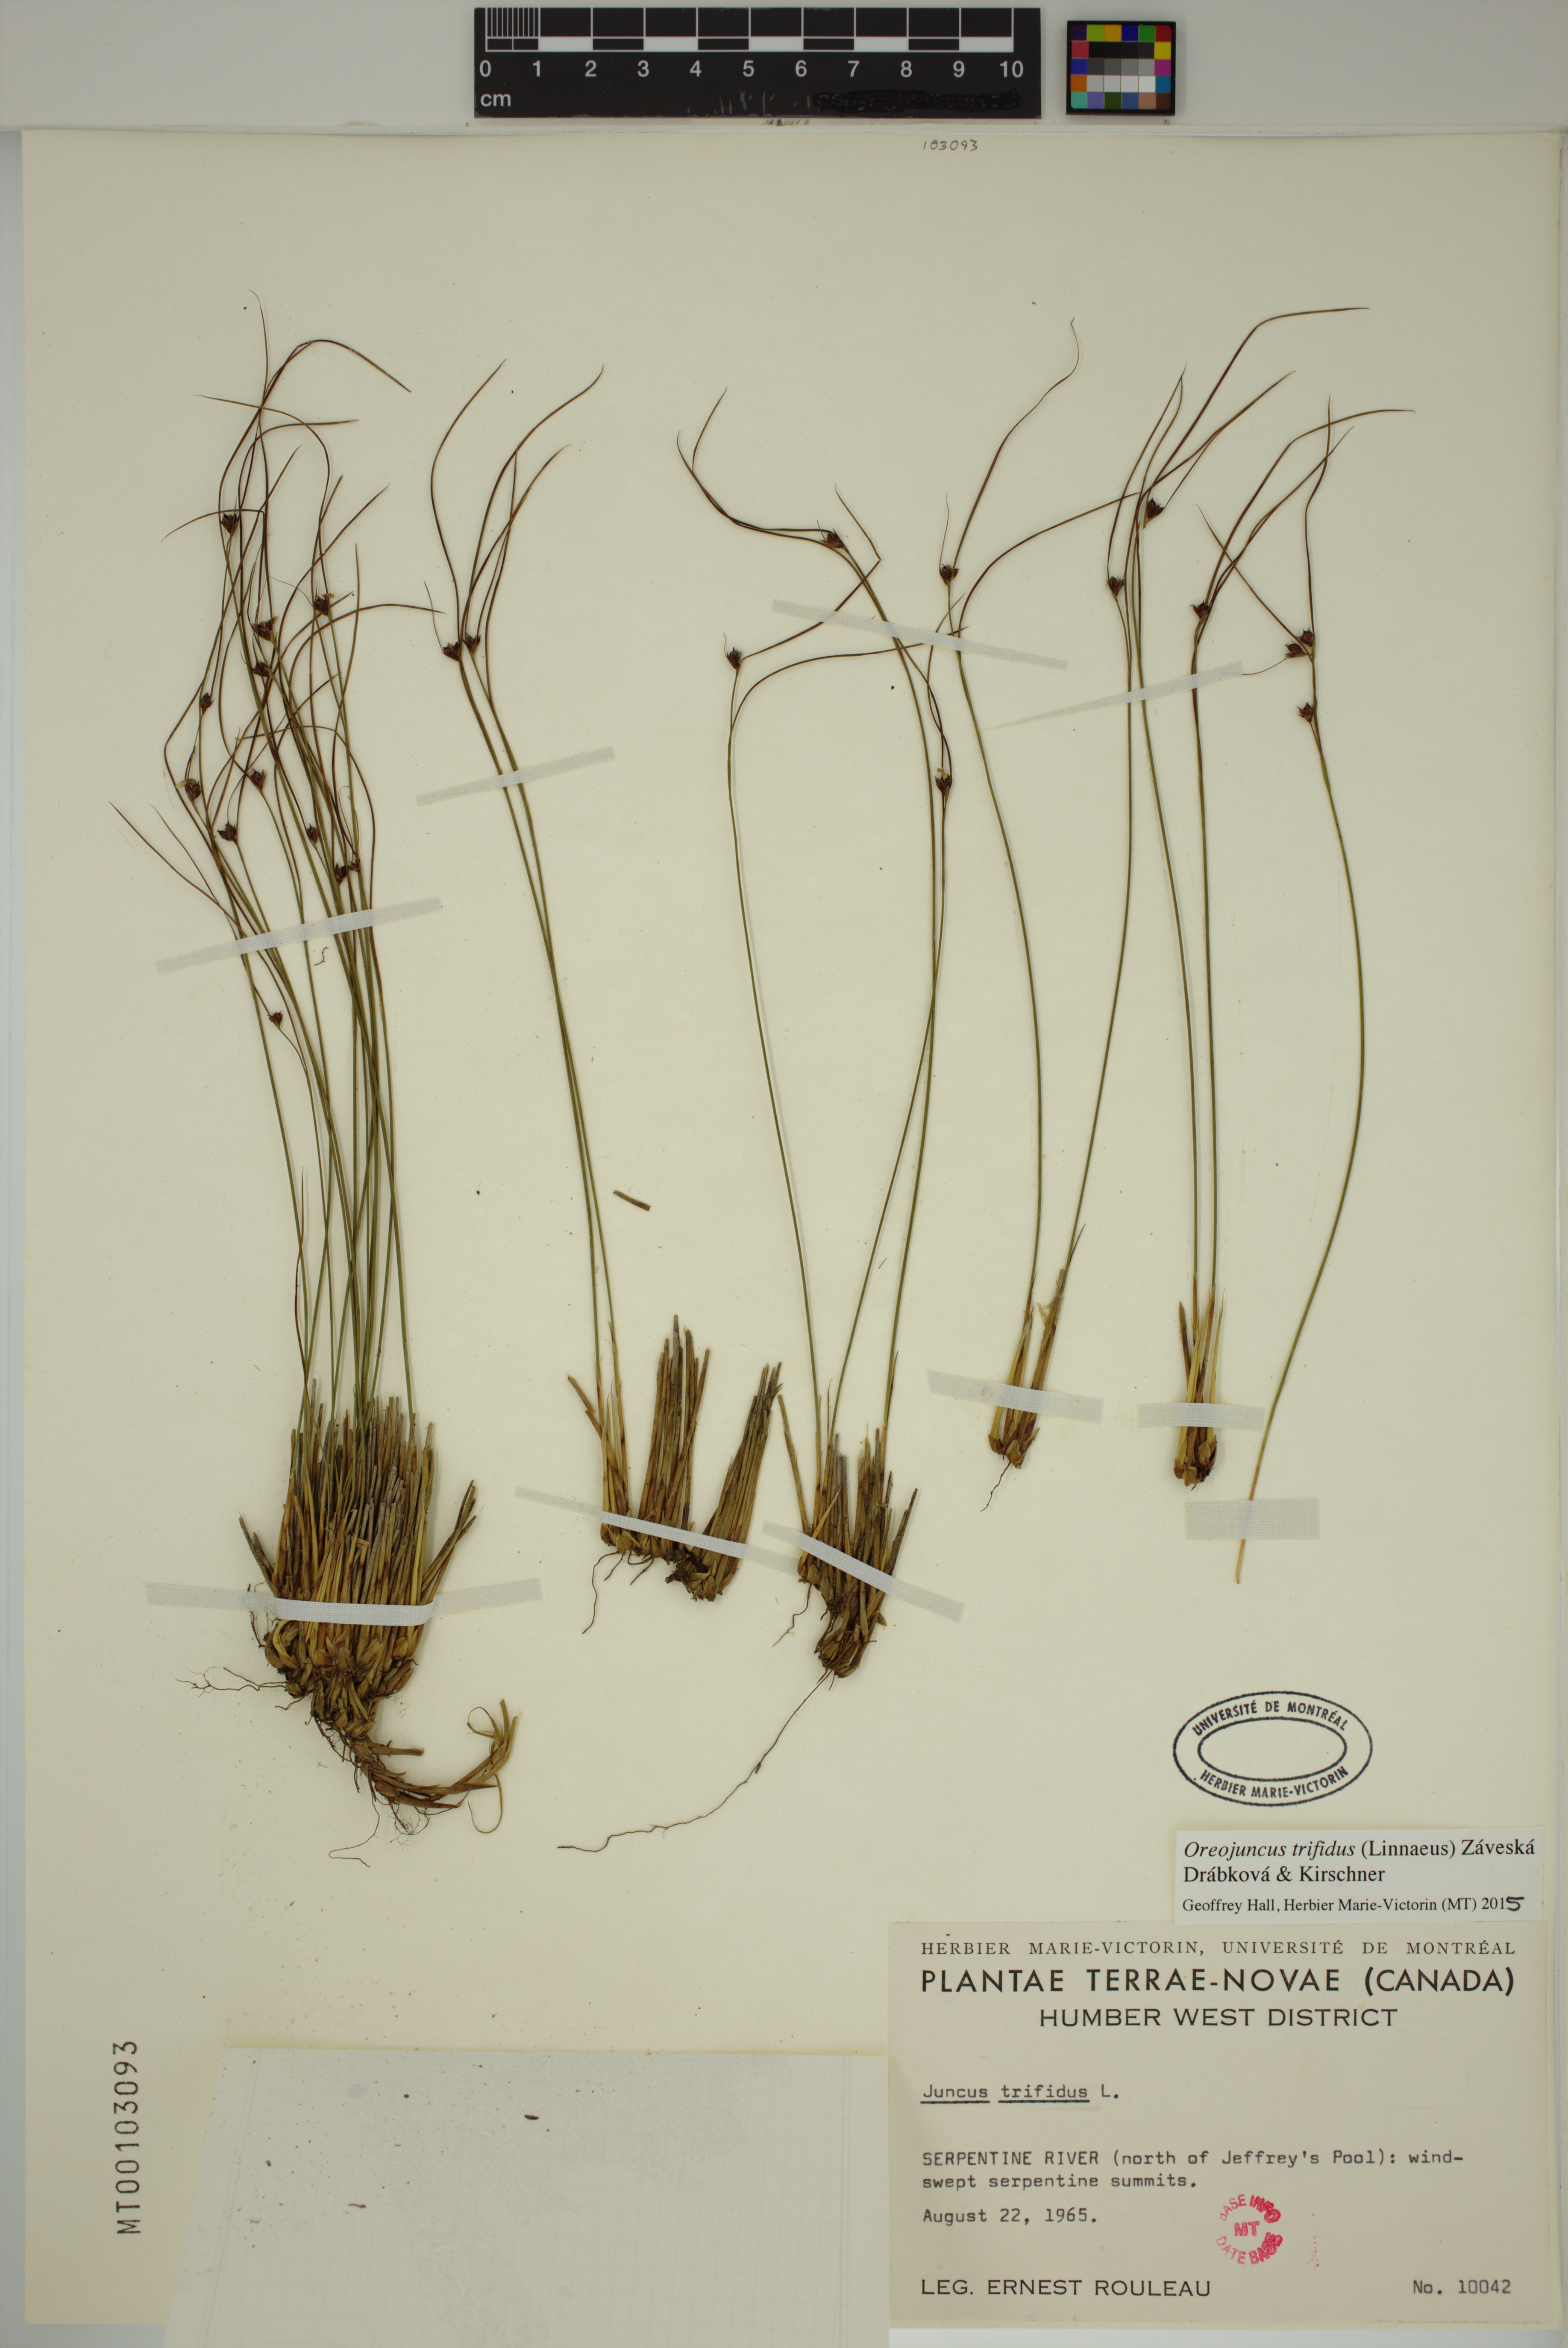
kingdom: Plantae
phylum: Tracheophyta
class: Liliopsida
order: Poales
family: Juncaceae
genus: Oreojuncus
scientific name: Oreojuncus trifidus
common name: Highland rush
